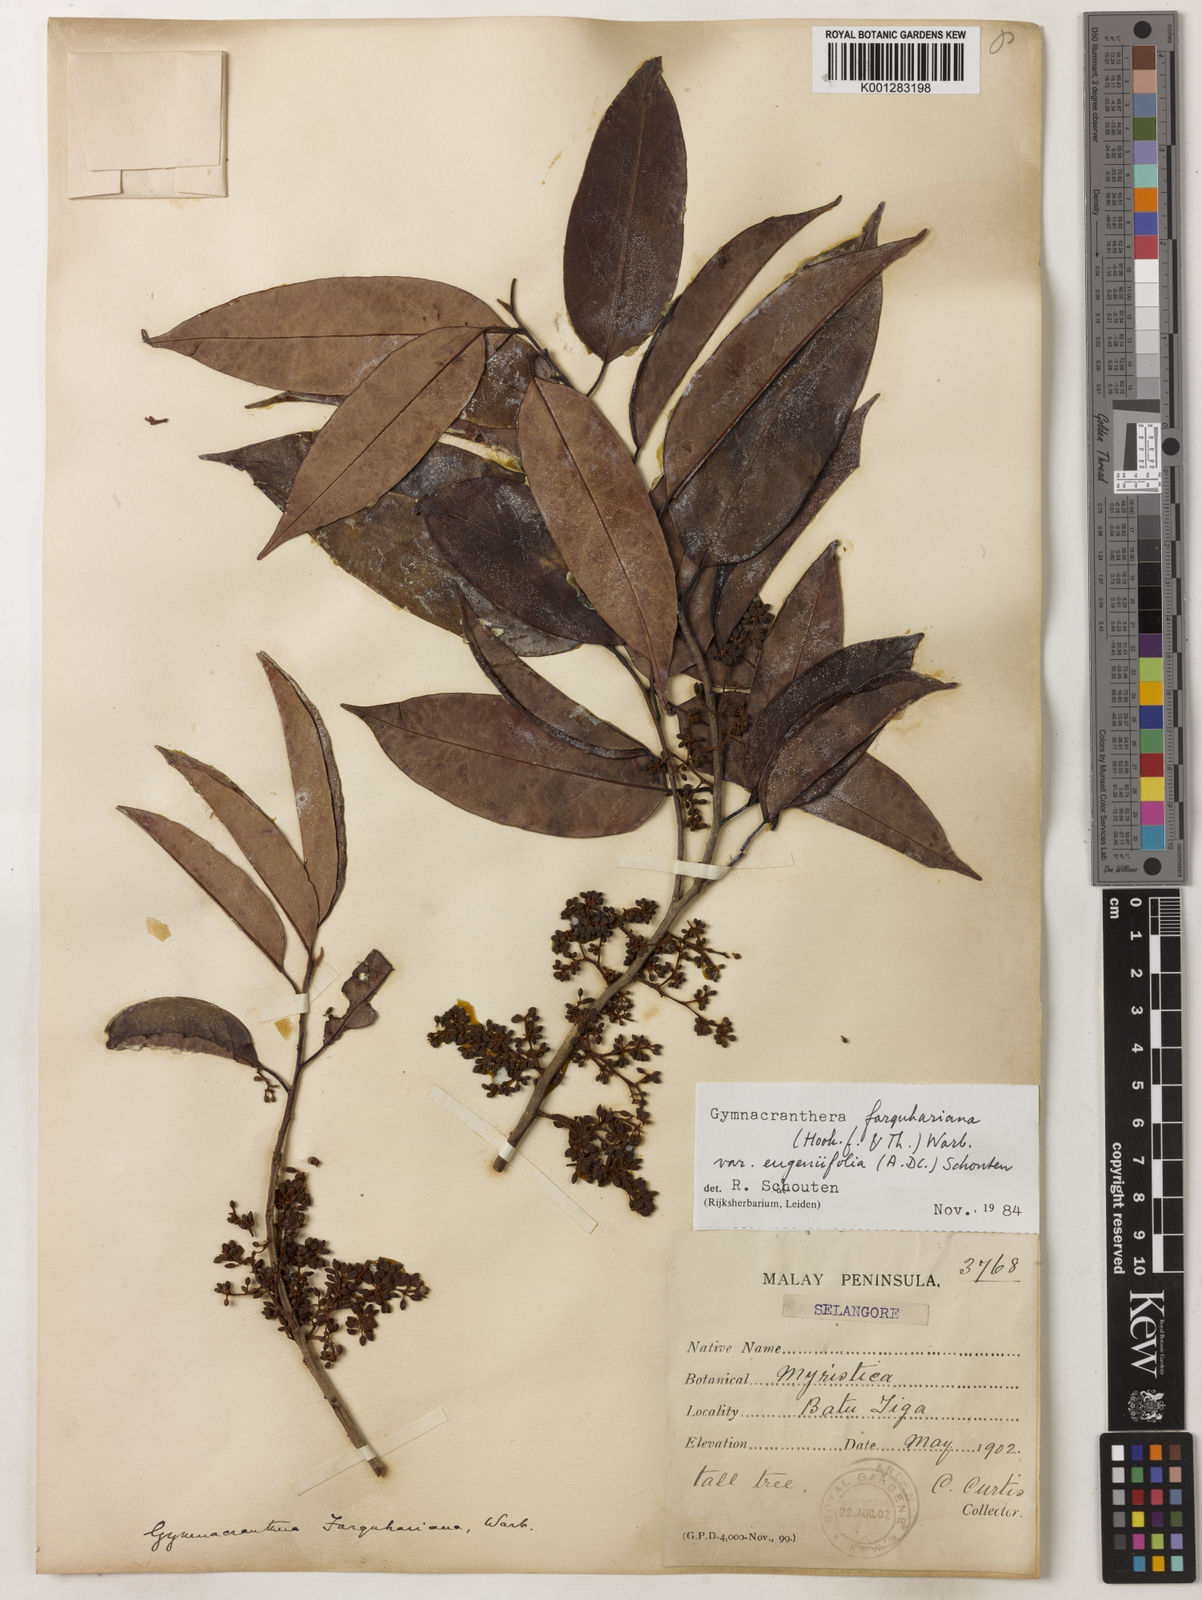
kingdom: Plantae
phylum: Tracheophyta
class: Magnoliopsida
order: Magnoliales
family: Myristicaceae
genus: Gymnacranthera
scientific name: Gymnacranthera farquhariana
